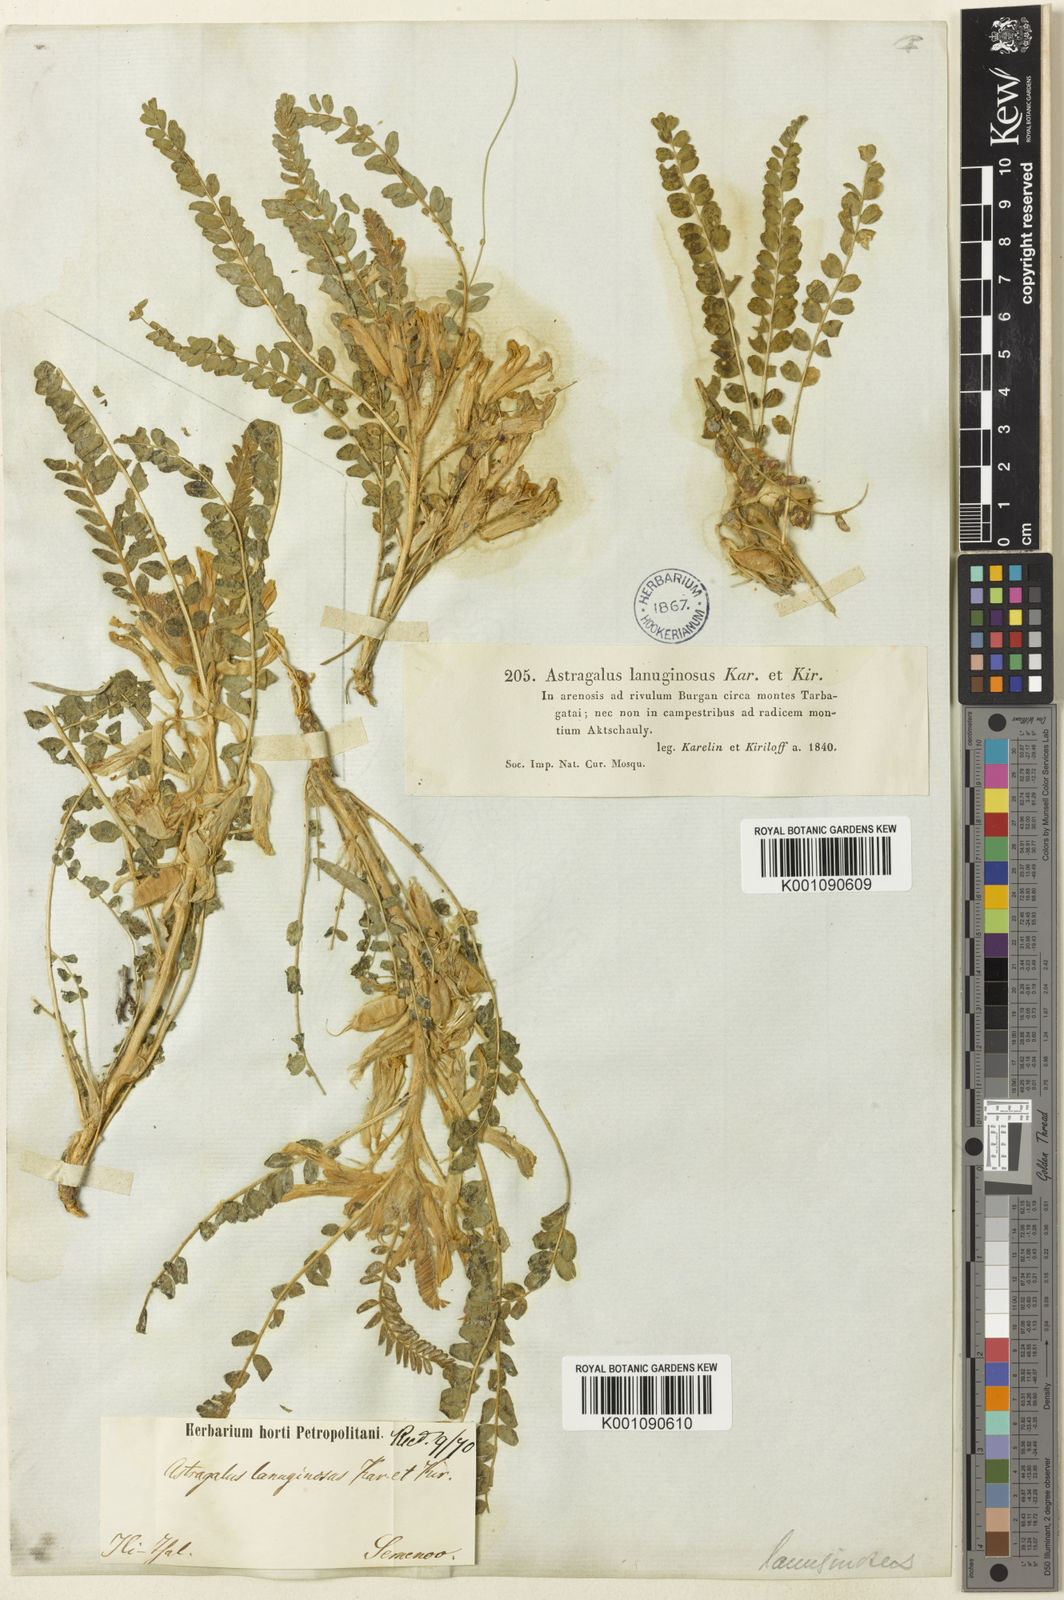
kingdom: Plantae
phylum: Tracheophyta
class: Magnoliopsida
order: Fabales
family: Fabaceae
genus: Astragalus
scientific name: Astragalus
